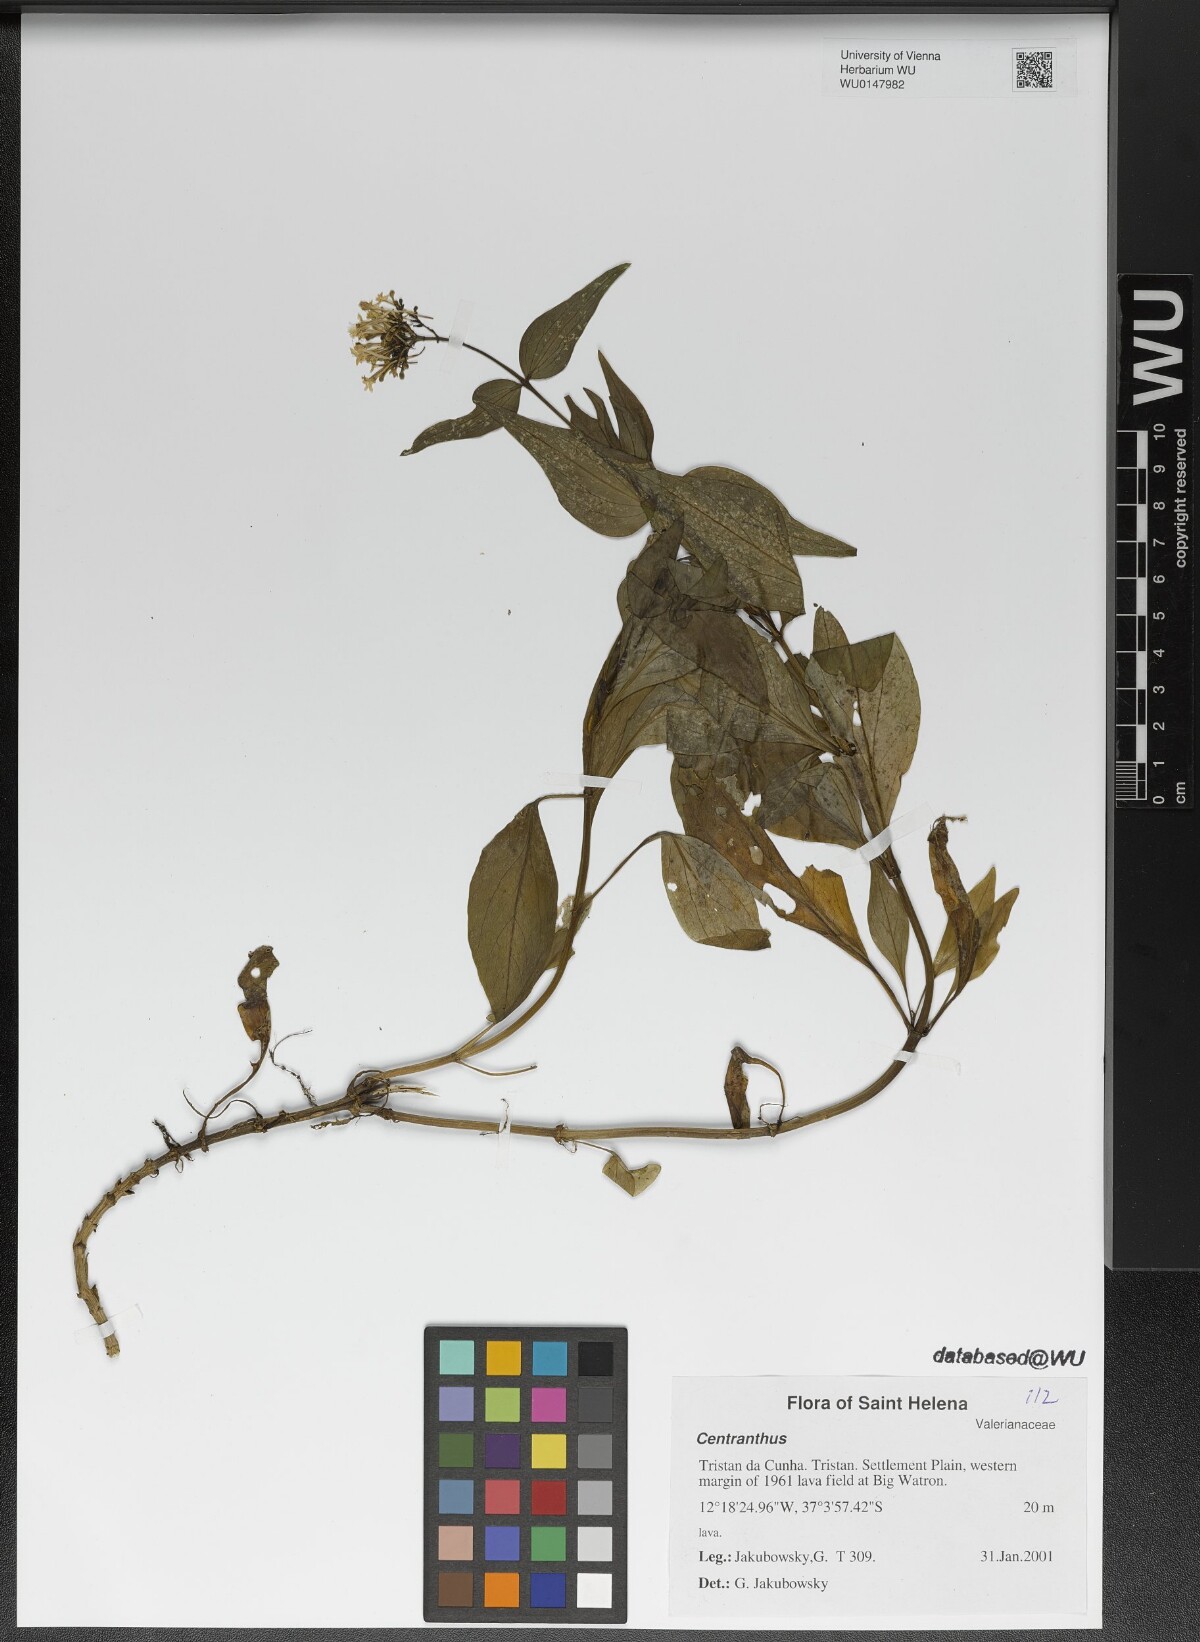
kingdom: Plantae
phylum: Tracheophyta
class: Magnoliopsida
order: Dipsacales
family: Caprifoliaceae
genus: Centranthus
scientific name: Centranthus
